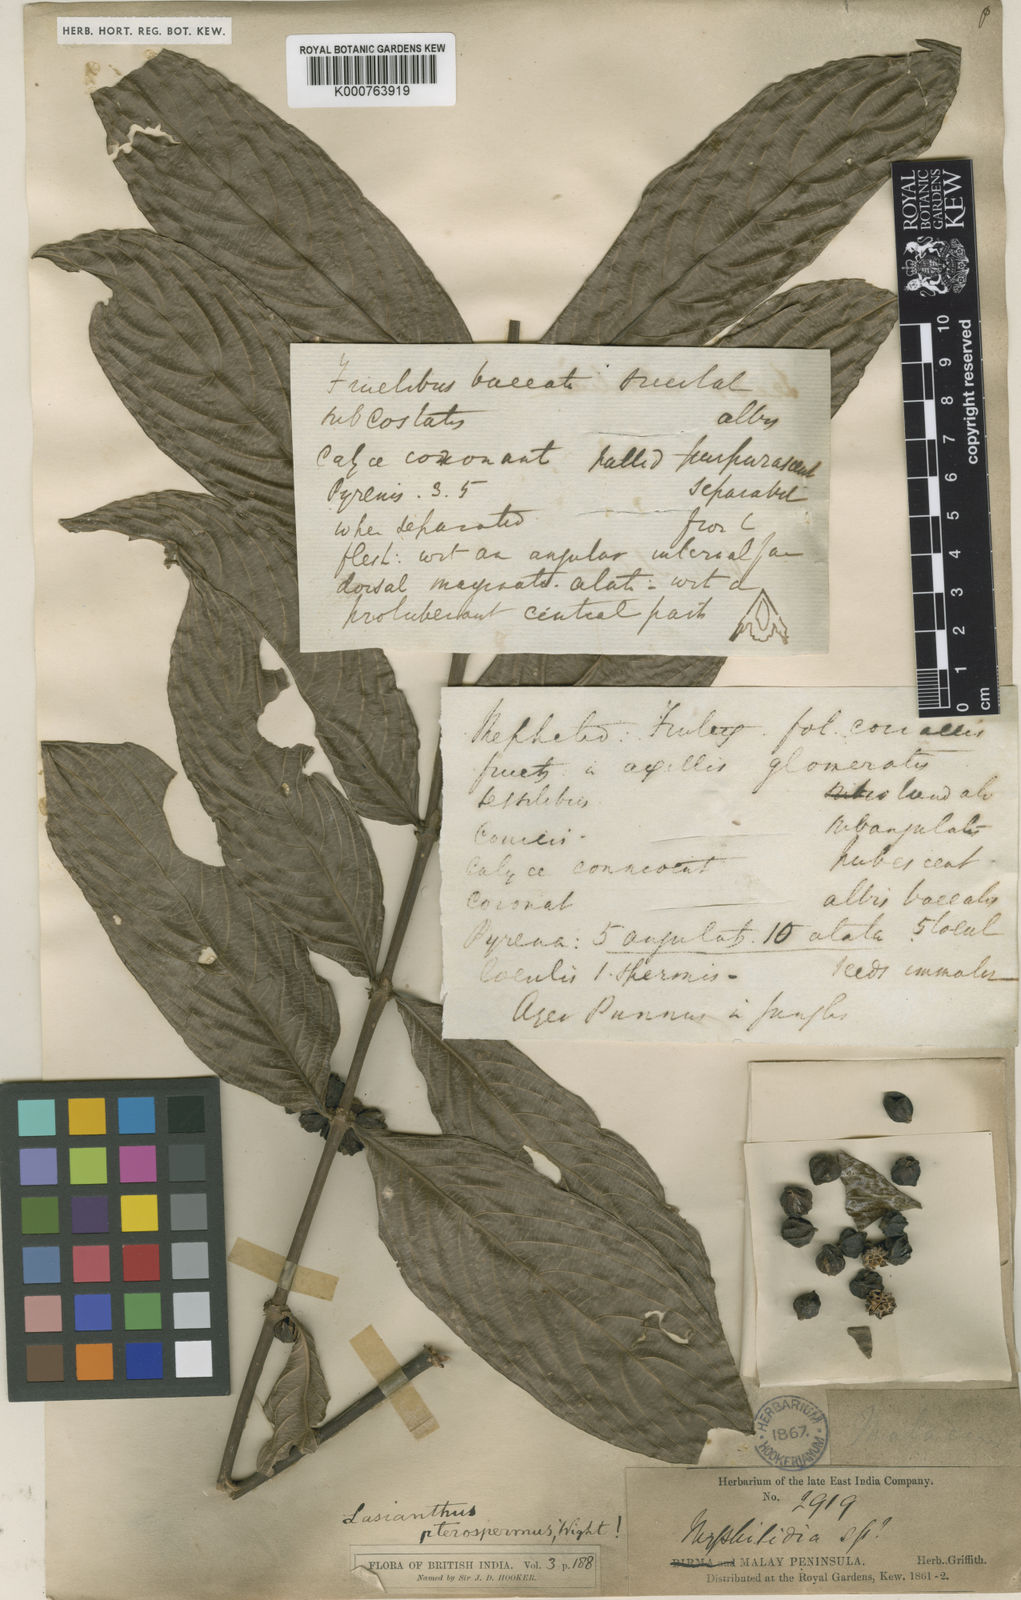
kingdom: Plantae
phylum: Tracheophyta
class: Magnoliopsida
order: Gentianales
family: Rubiaceae
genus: Lasianthus
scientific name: Lasianthus venosus
